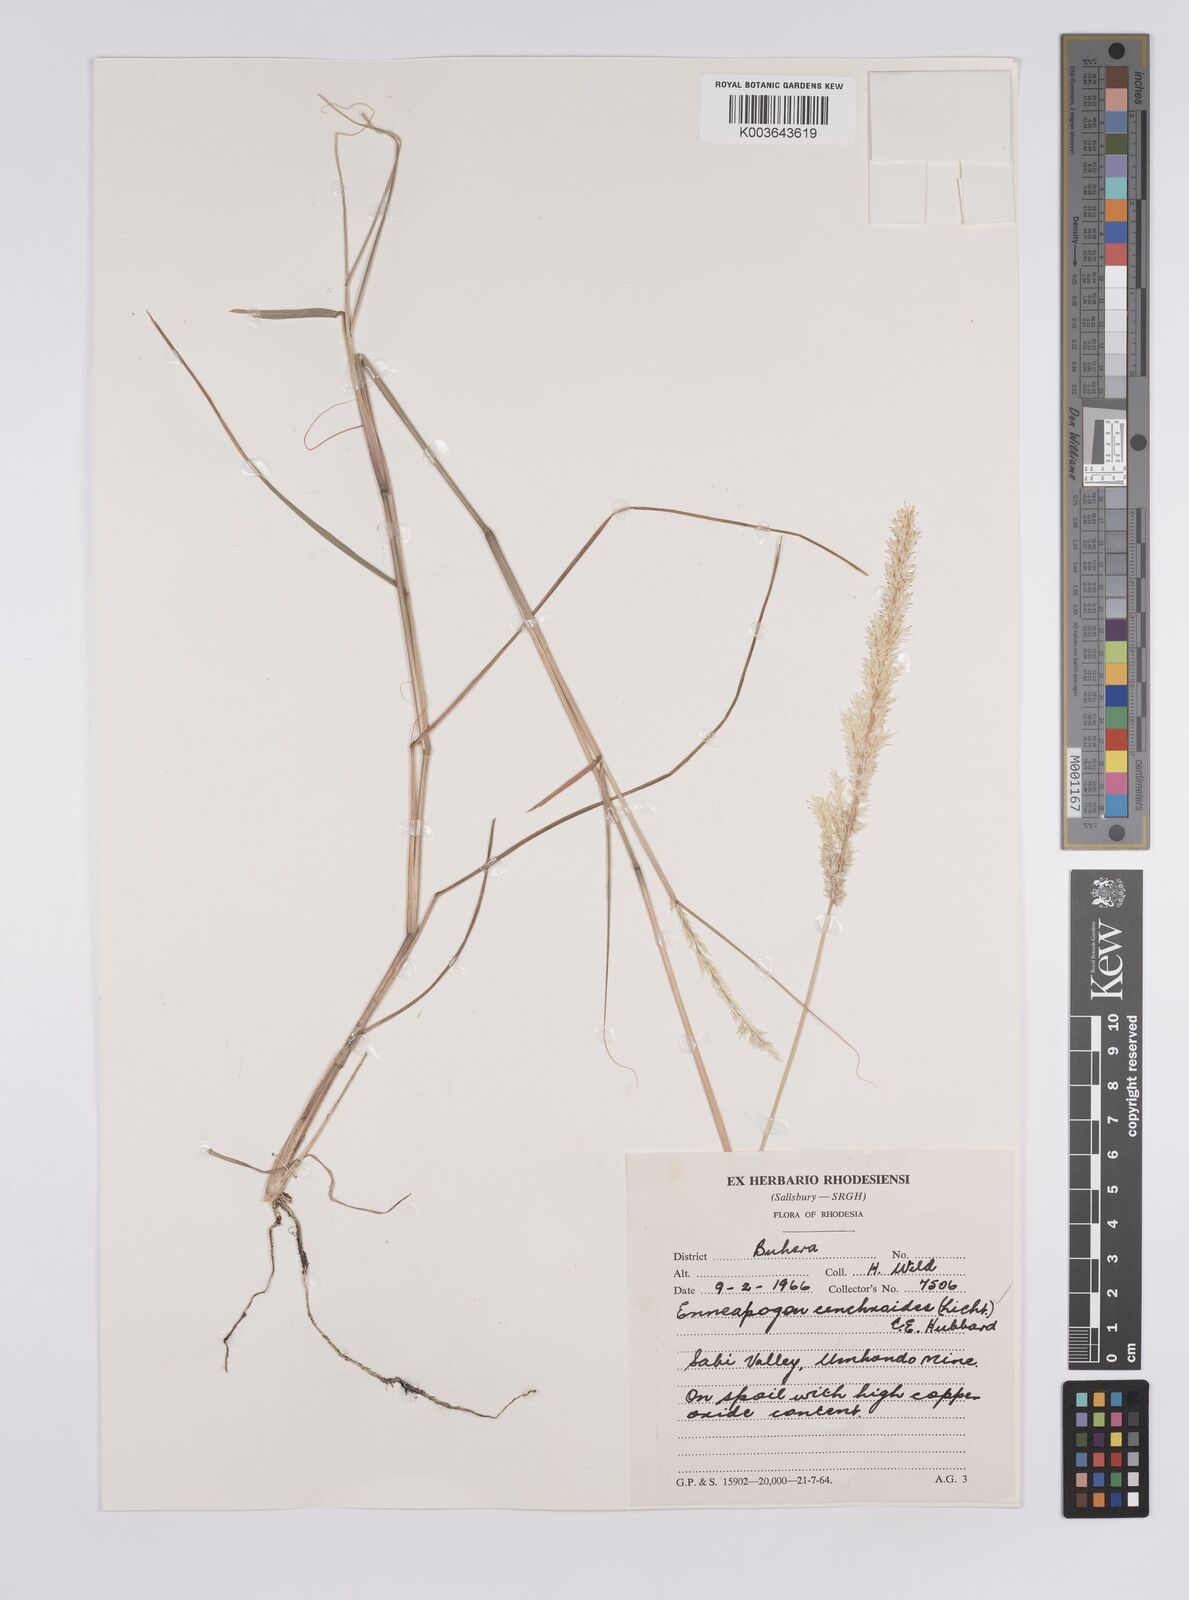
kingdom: Plantae
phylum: Tracheophyta
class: Liliopsida
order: Poales
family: Poaceae
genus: Enneapogon
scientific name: Enneapogon cenchroides
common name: Soft feather pappusgrass
